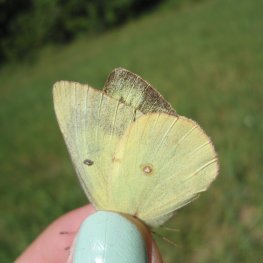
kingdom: Animalia
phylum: Arthropoda
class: Insecta
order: Lepidoptera
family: Pieridae
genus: Colias
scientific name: Colias philodice
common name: Clouded Sulphur
